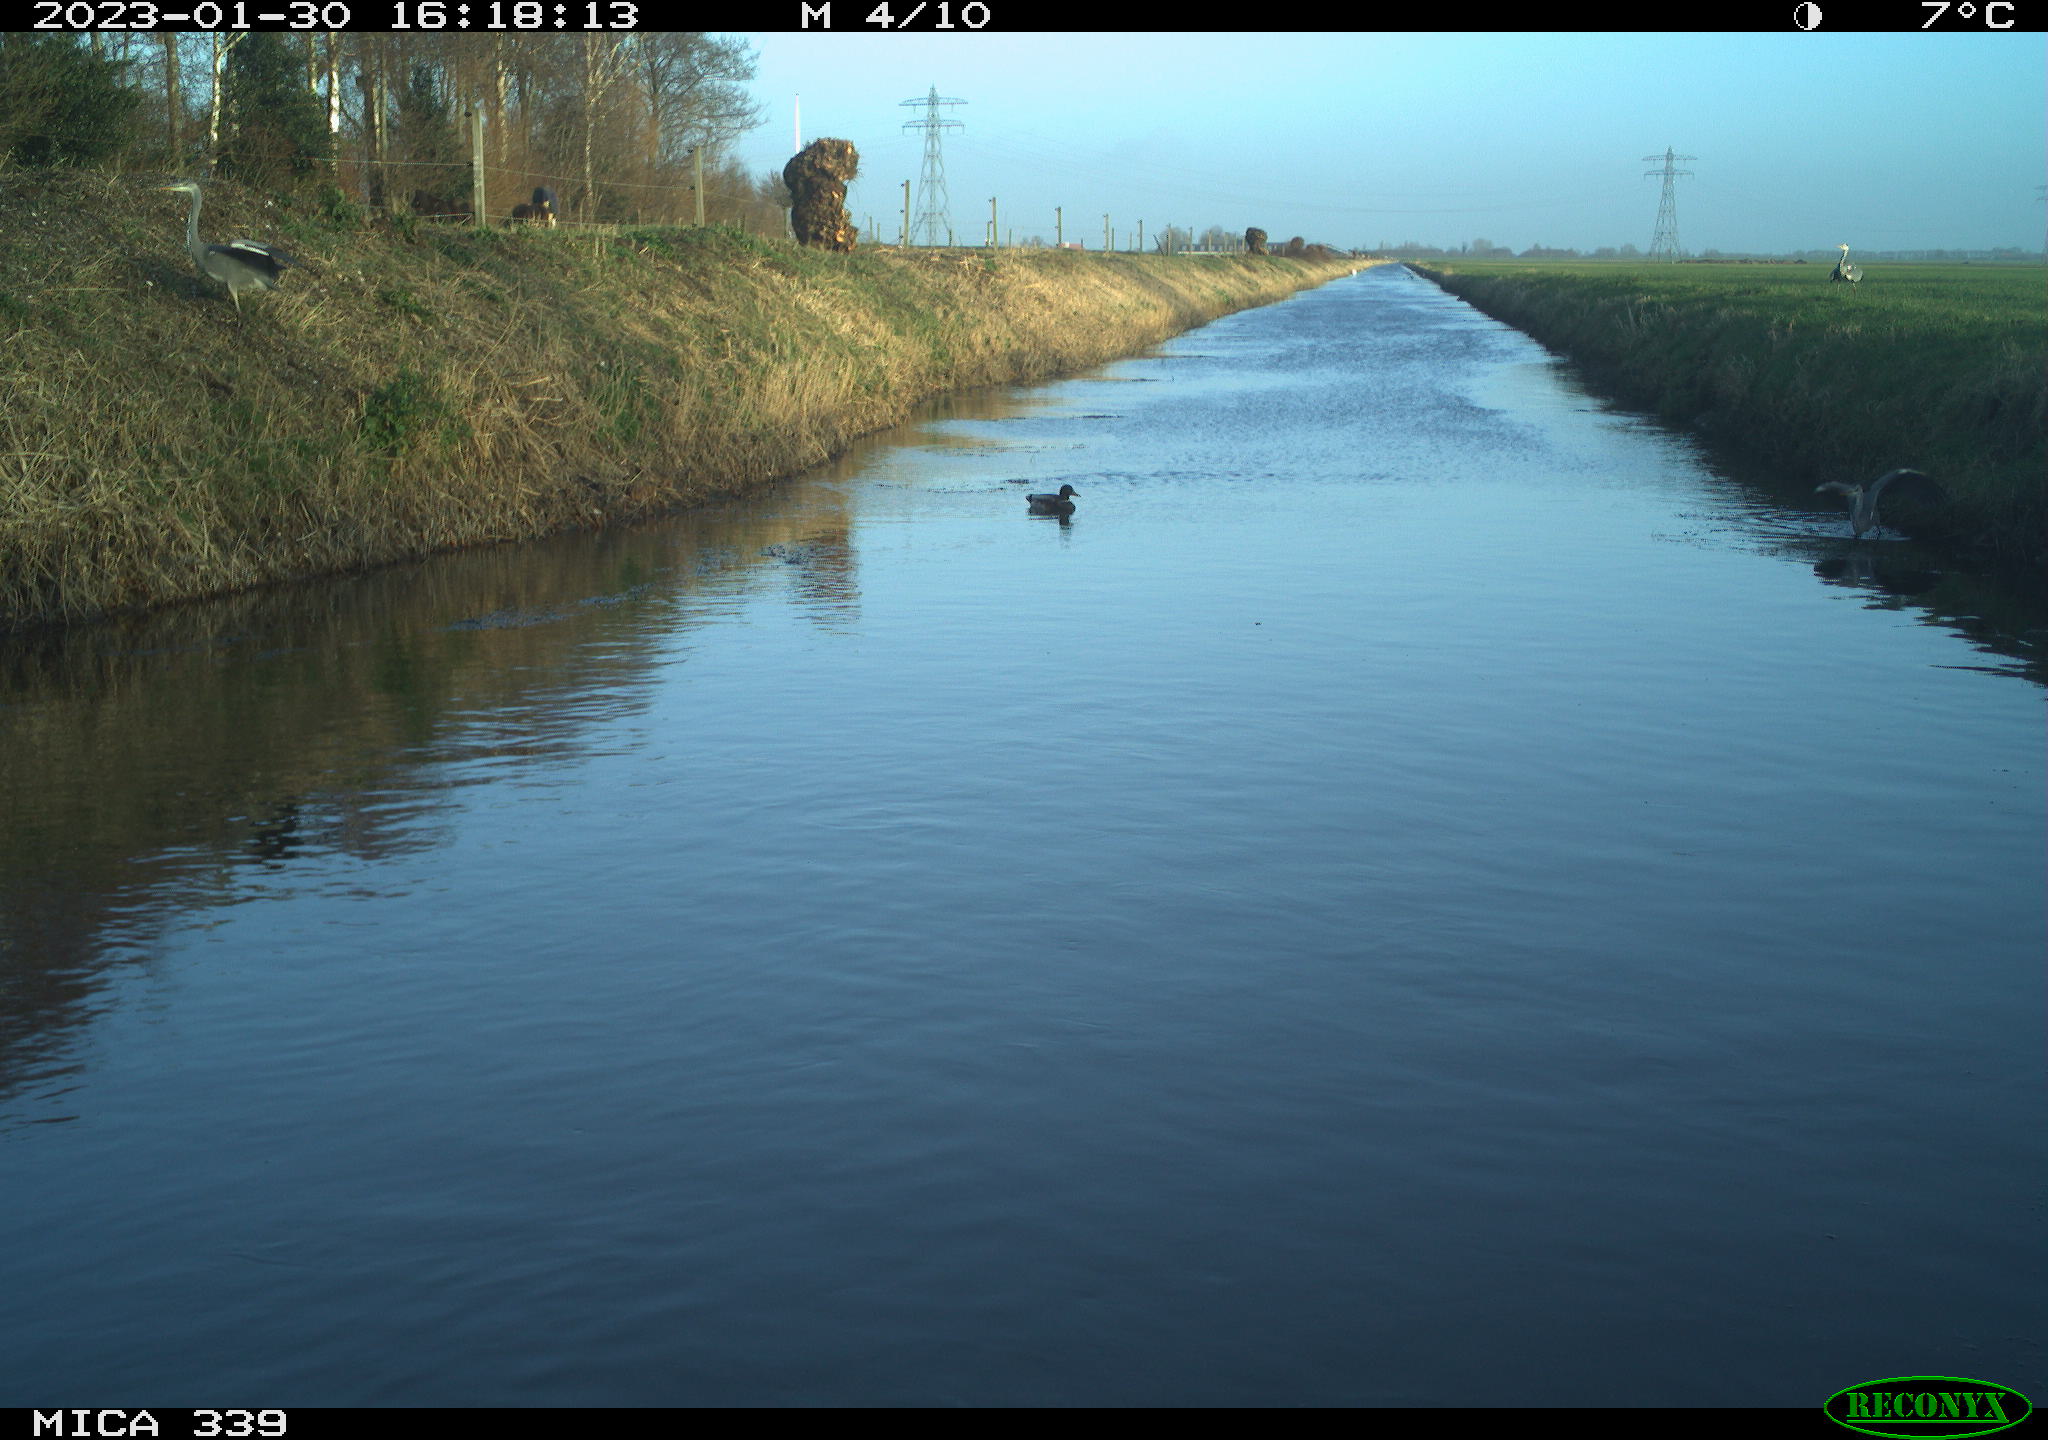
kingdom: Animalia
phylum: Chordata
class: Aves
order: Anseriformes
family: Anatidae
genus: Anas
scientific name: Anas platyrhynchos
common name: Mallard
